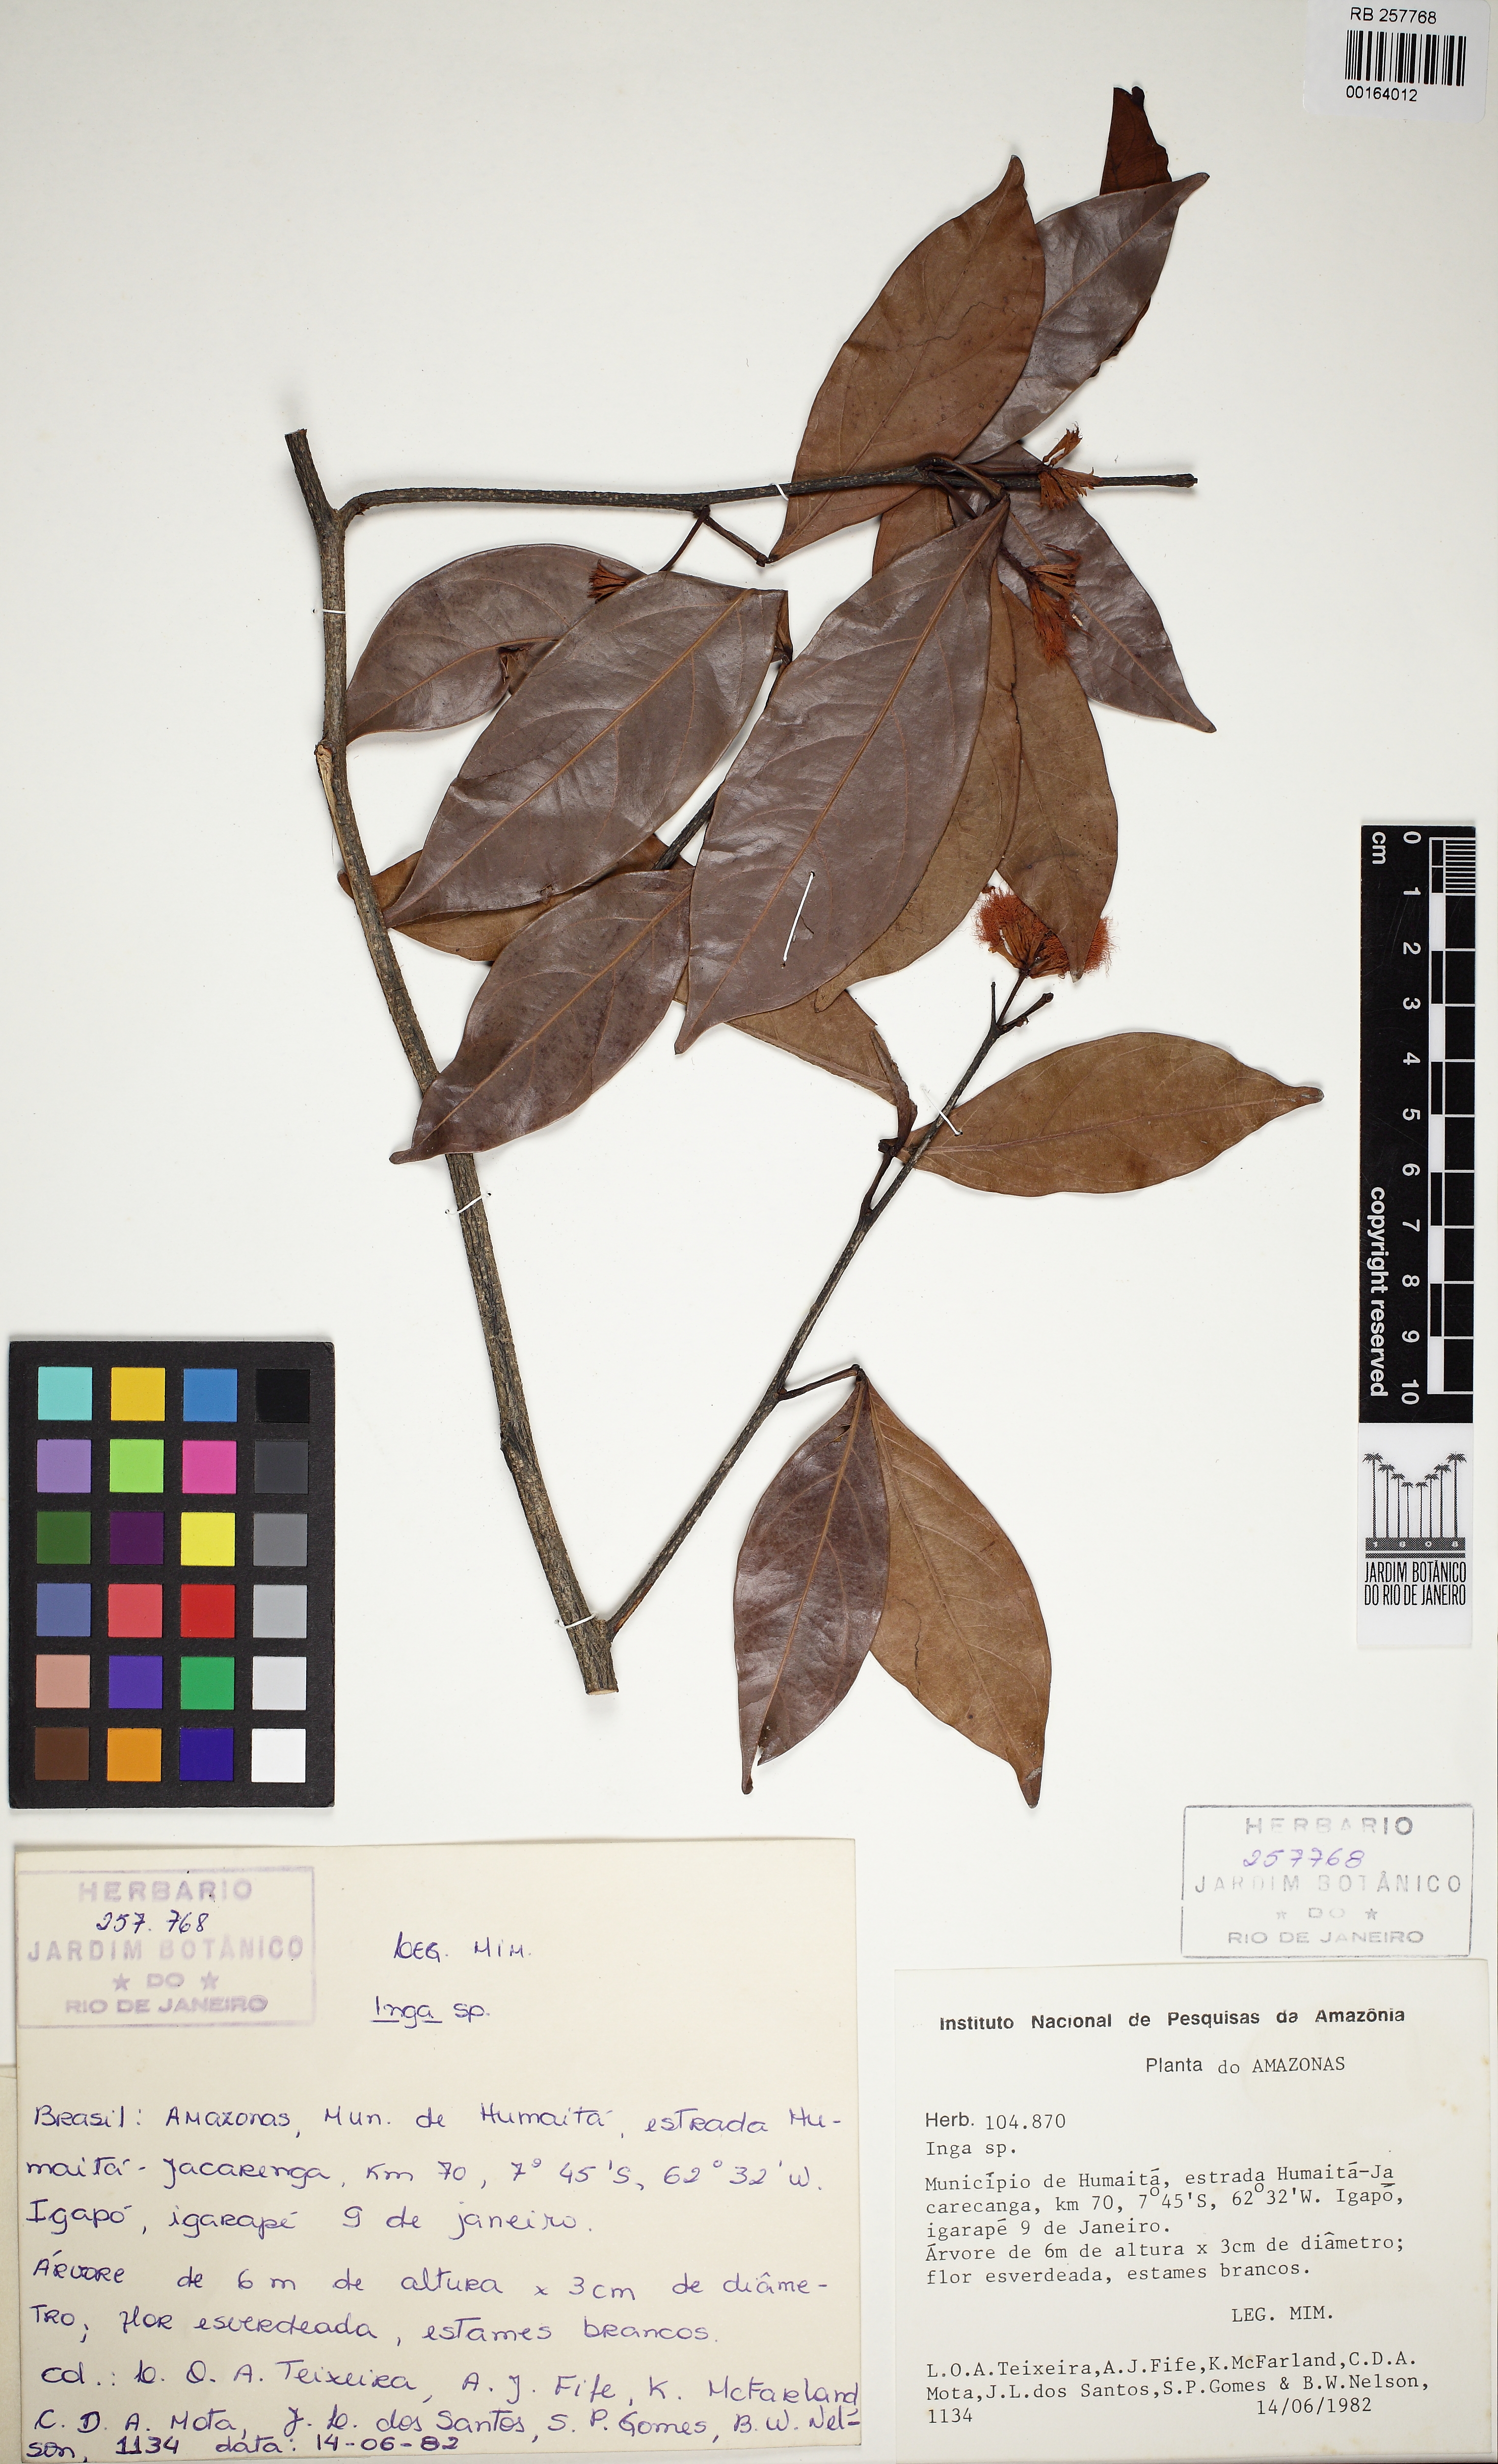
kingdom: Plantae
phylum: Tracheophyta
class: Magnoliopsida
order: Fabales
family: Fabaceae
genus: Inga
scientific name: Inga ulei
